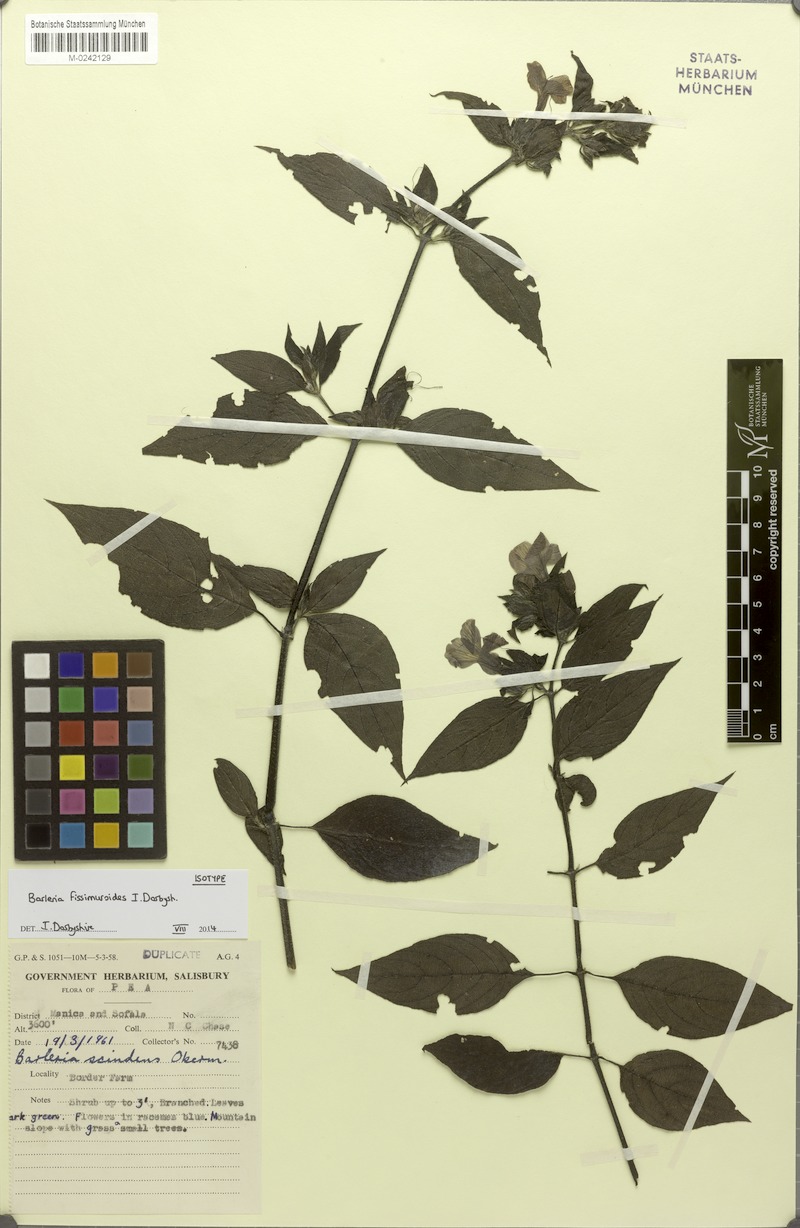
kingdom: Plantae
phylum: Tracheophyta
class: Magnoliopsida
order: Lamiales
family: Acanthaceae
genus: Barleria
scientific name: Barleria fissimuroides
